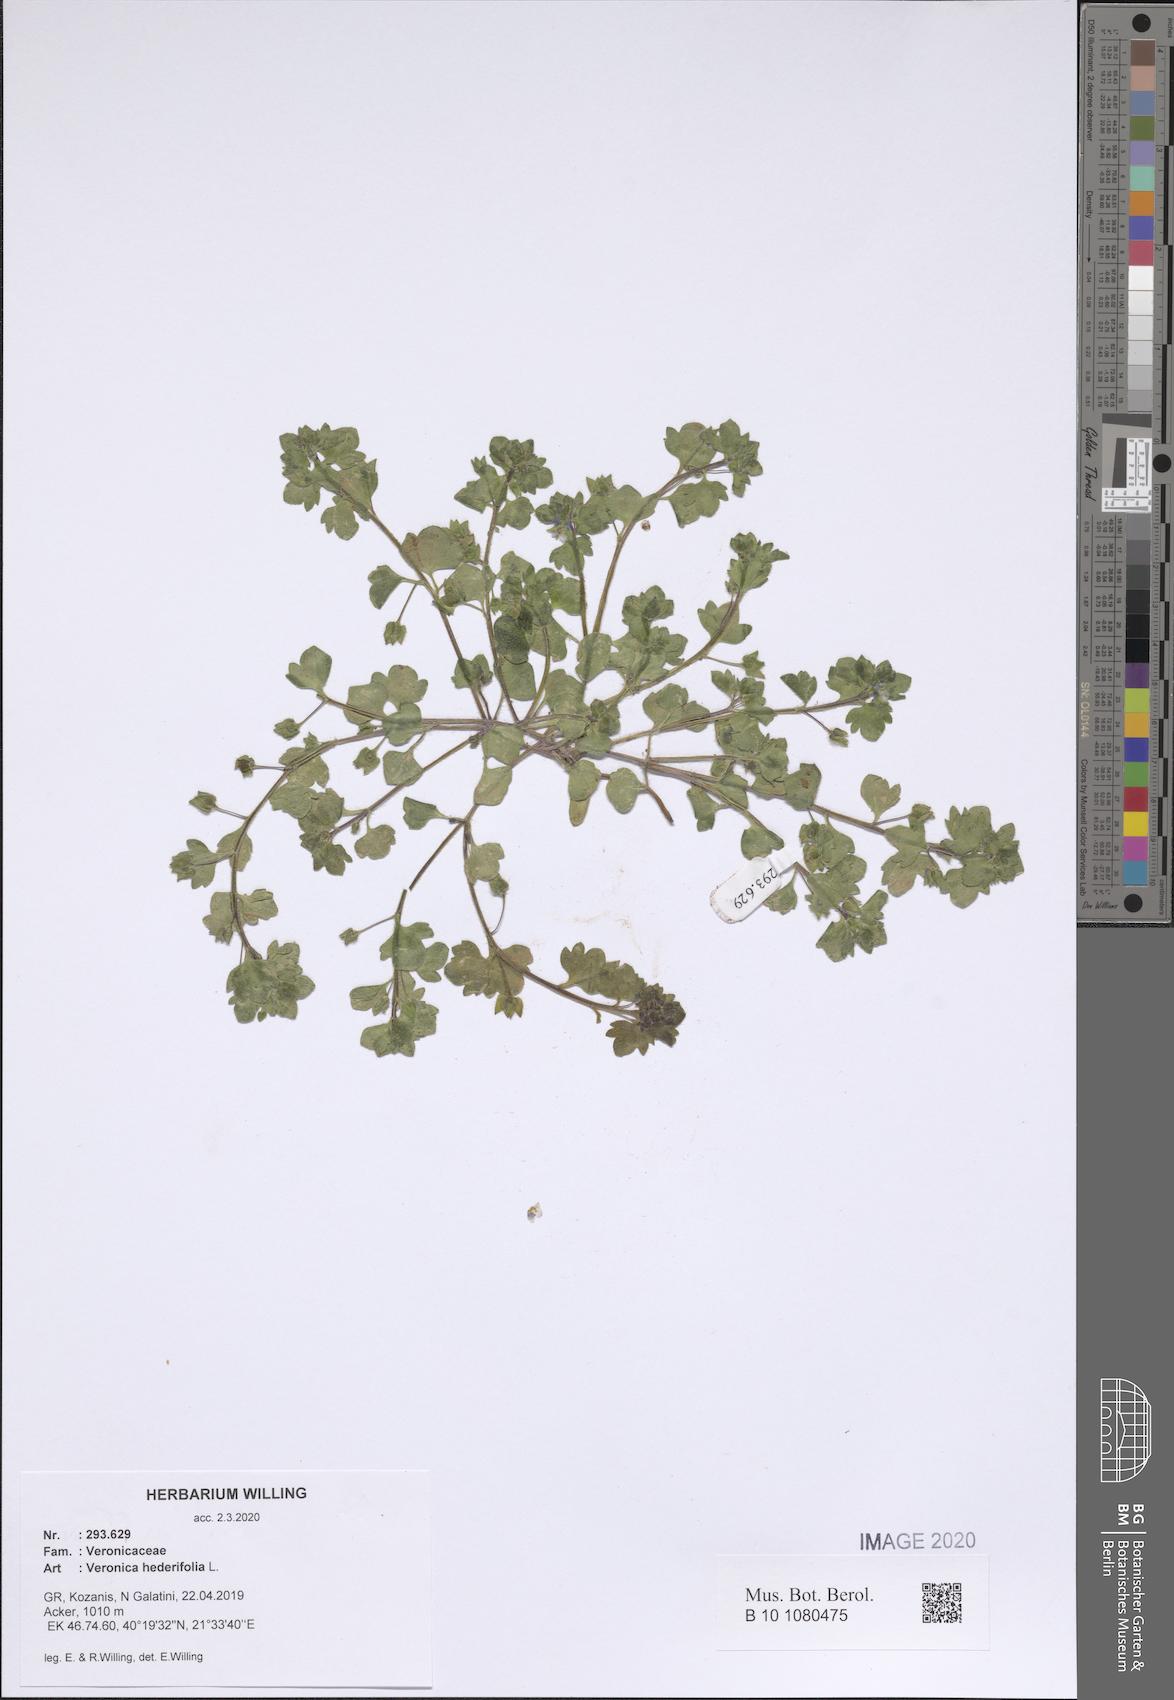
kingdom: Plantae
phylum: Tracheophyta
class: Magnoliopsida
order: Lamiales
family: Plantaginaceae
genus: Veronica
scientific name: Veronica hederifolia
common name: Ivy-leaved speedwell
